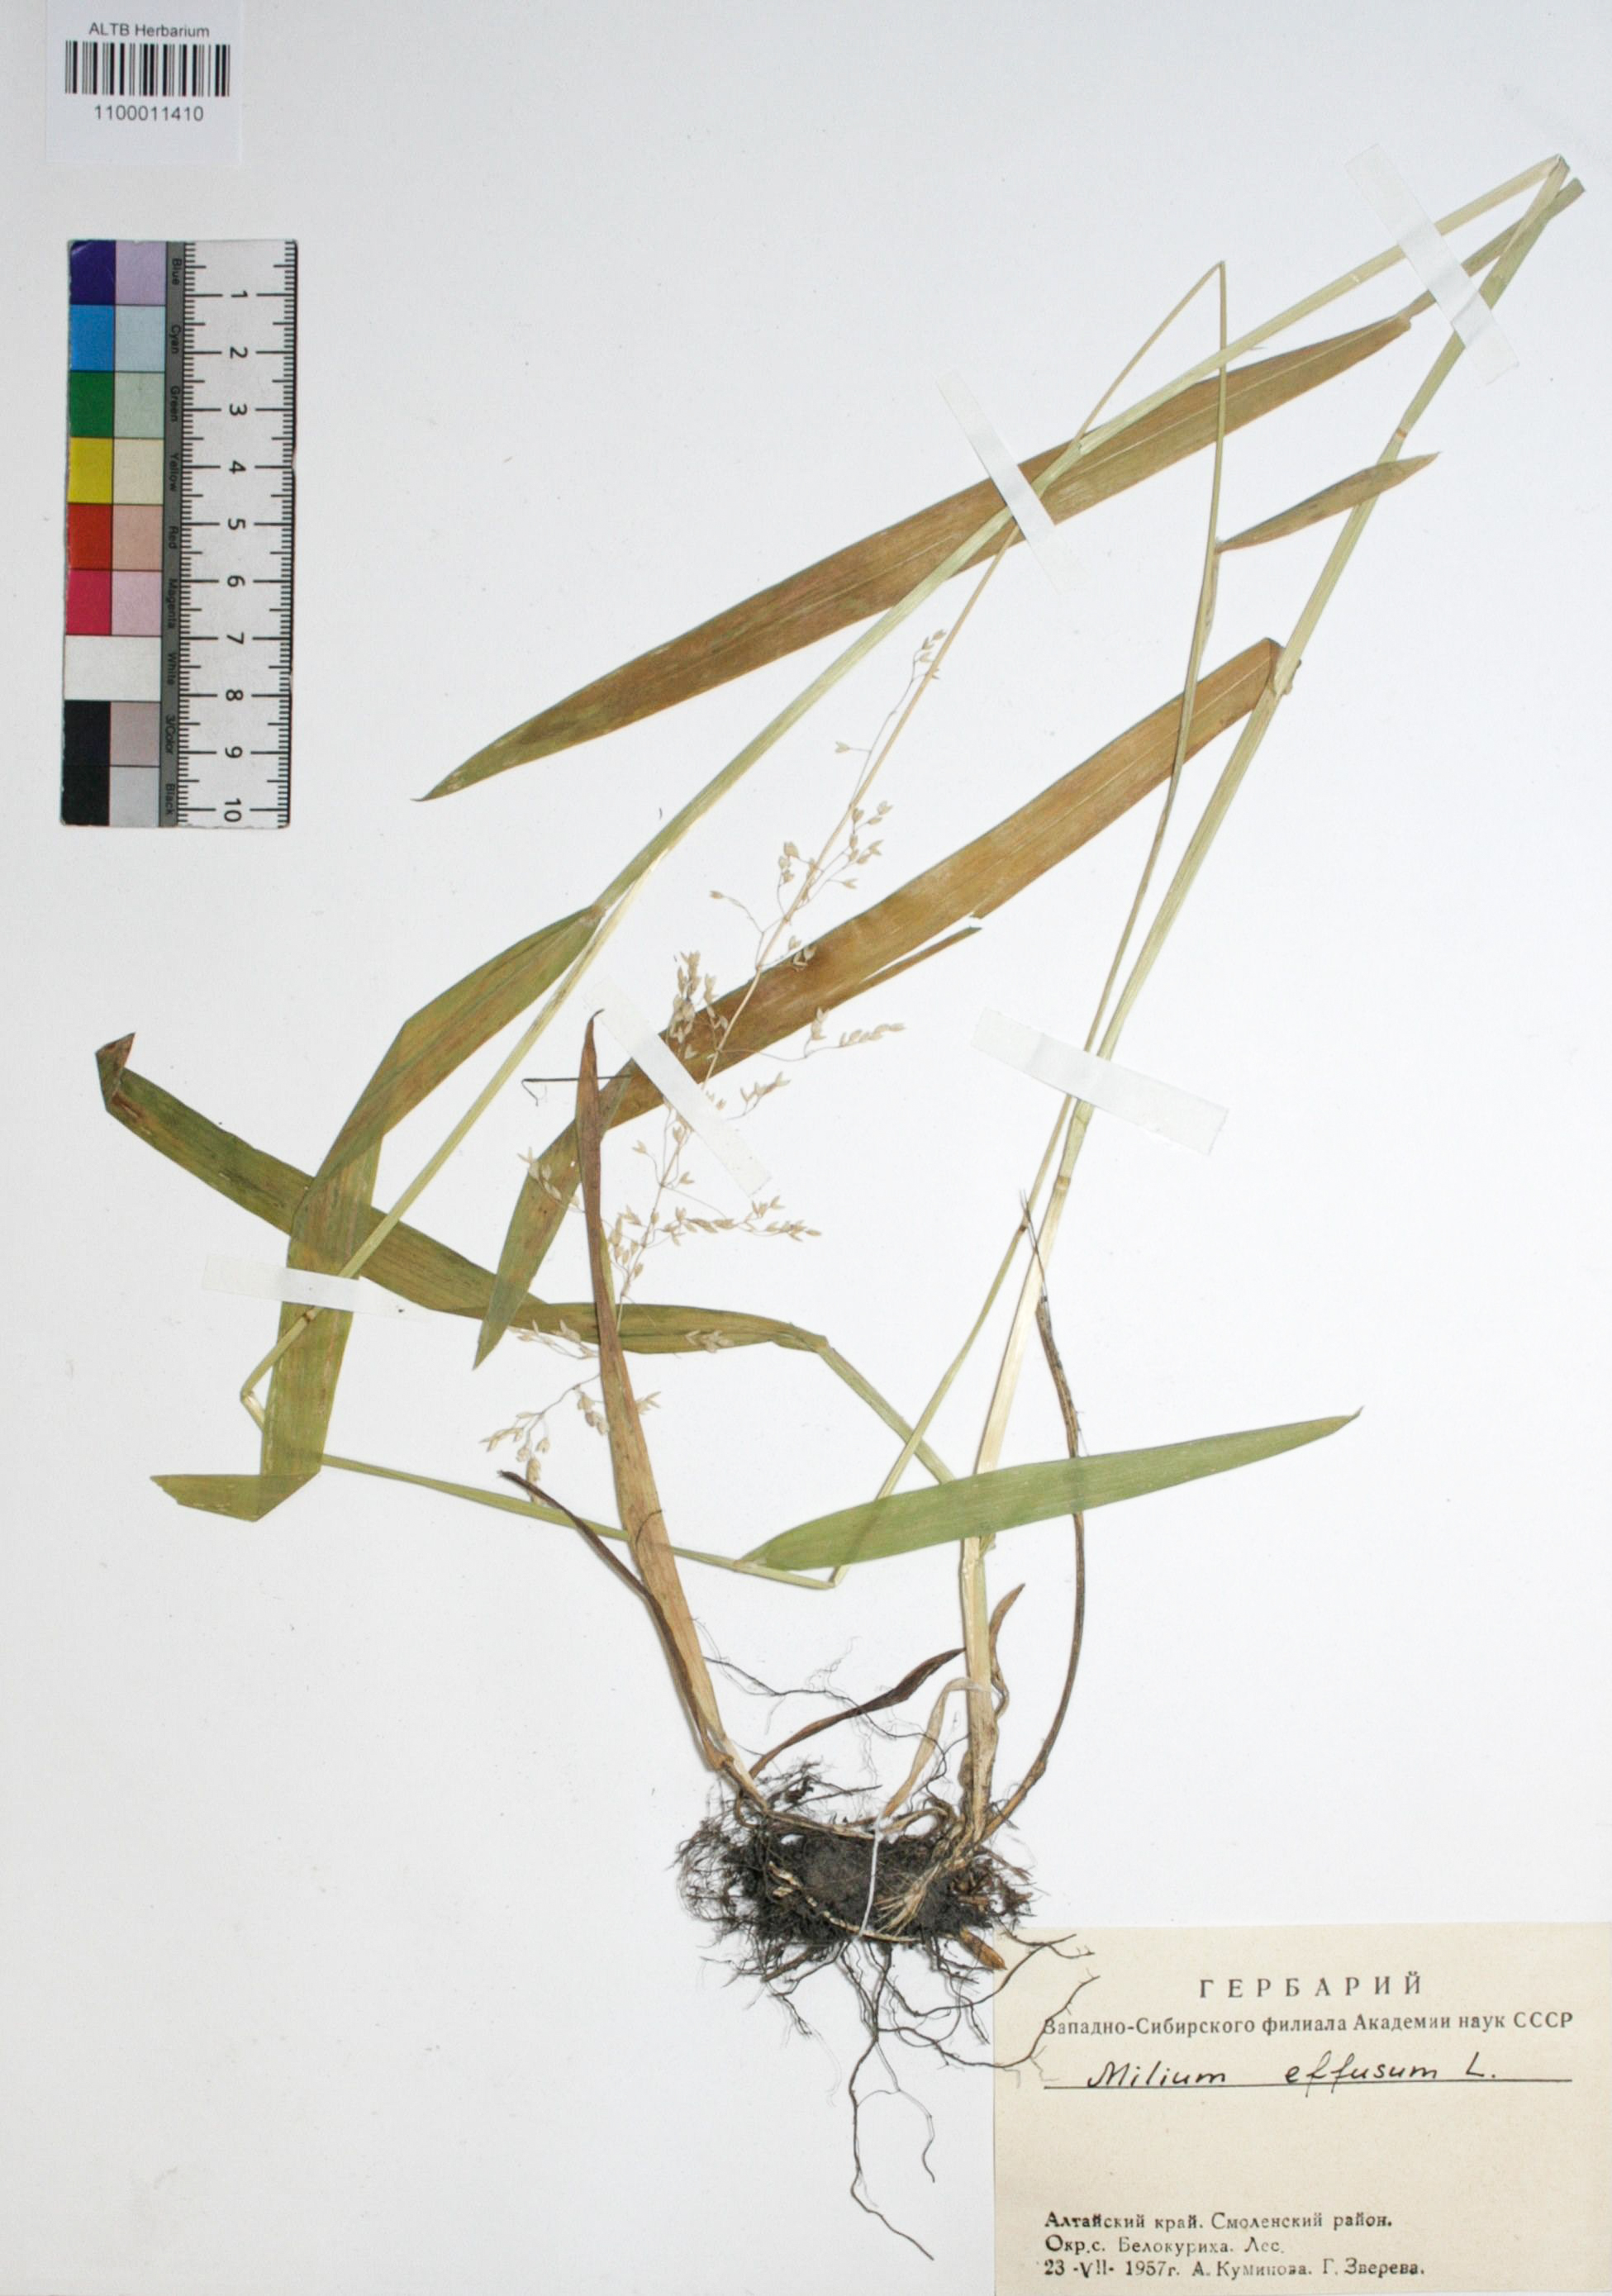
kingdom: Plantae
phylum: Tracheophyta
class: Liliopsida
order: Poales
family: Poaceae
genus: Milium
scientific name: Milium effusum
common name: Wood millet
